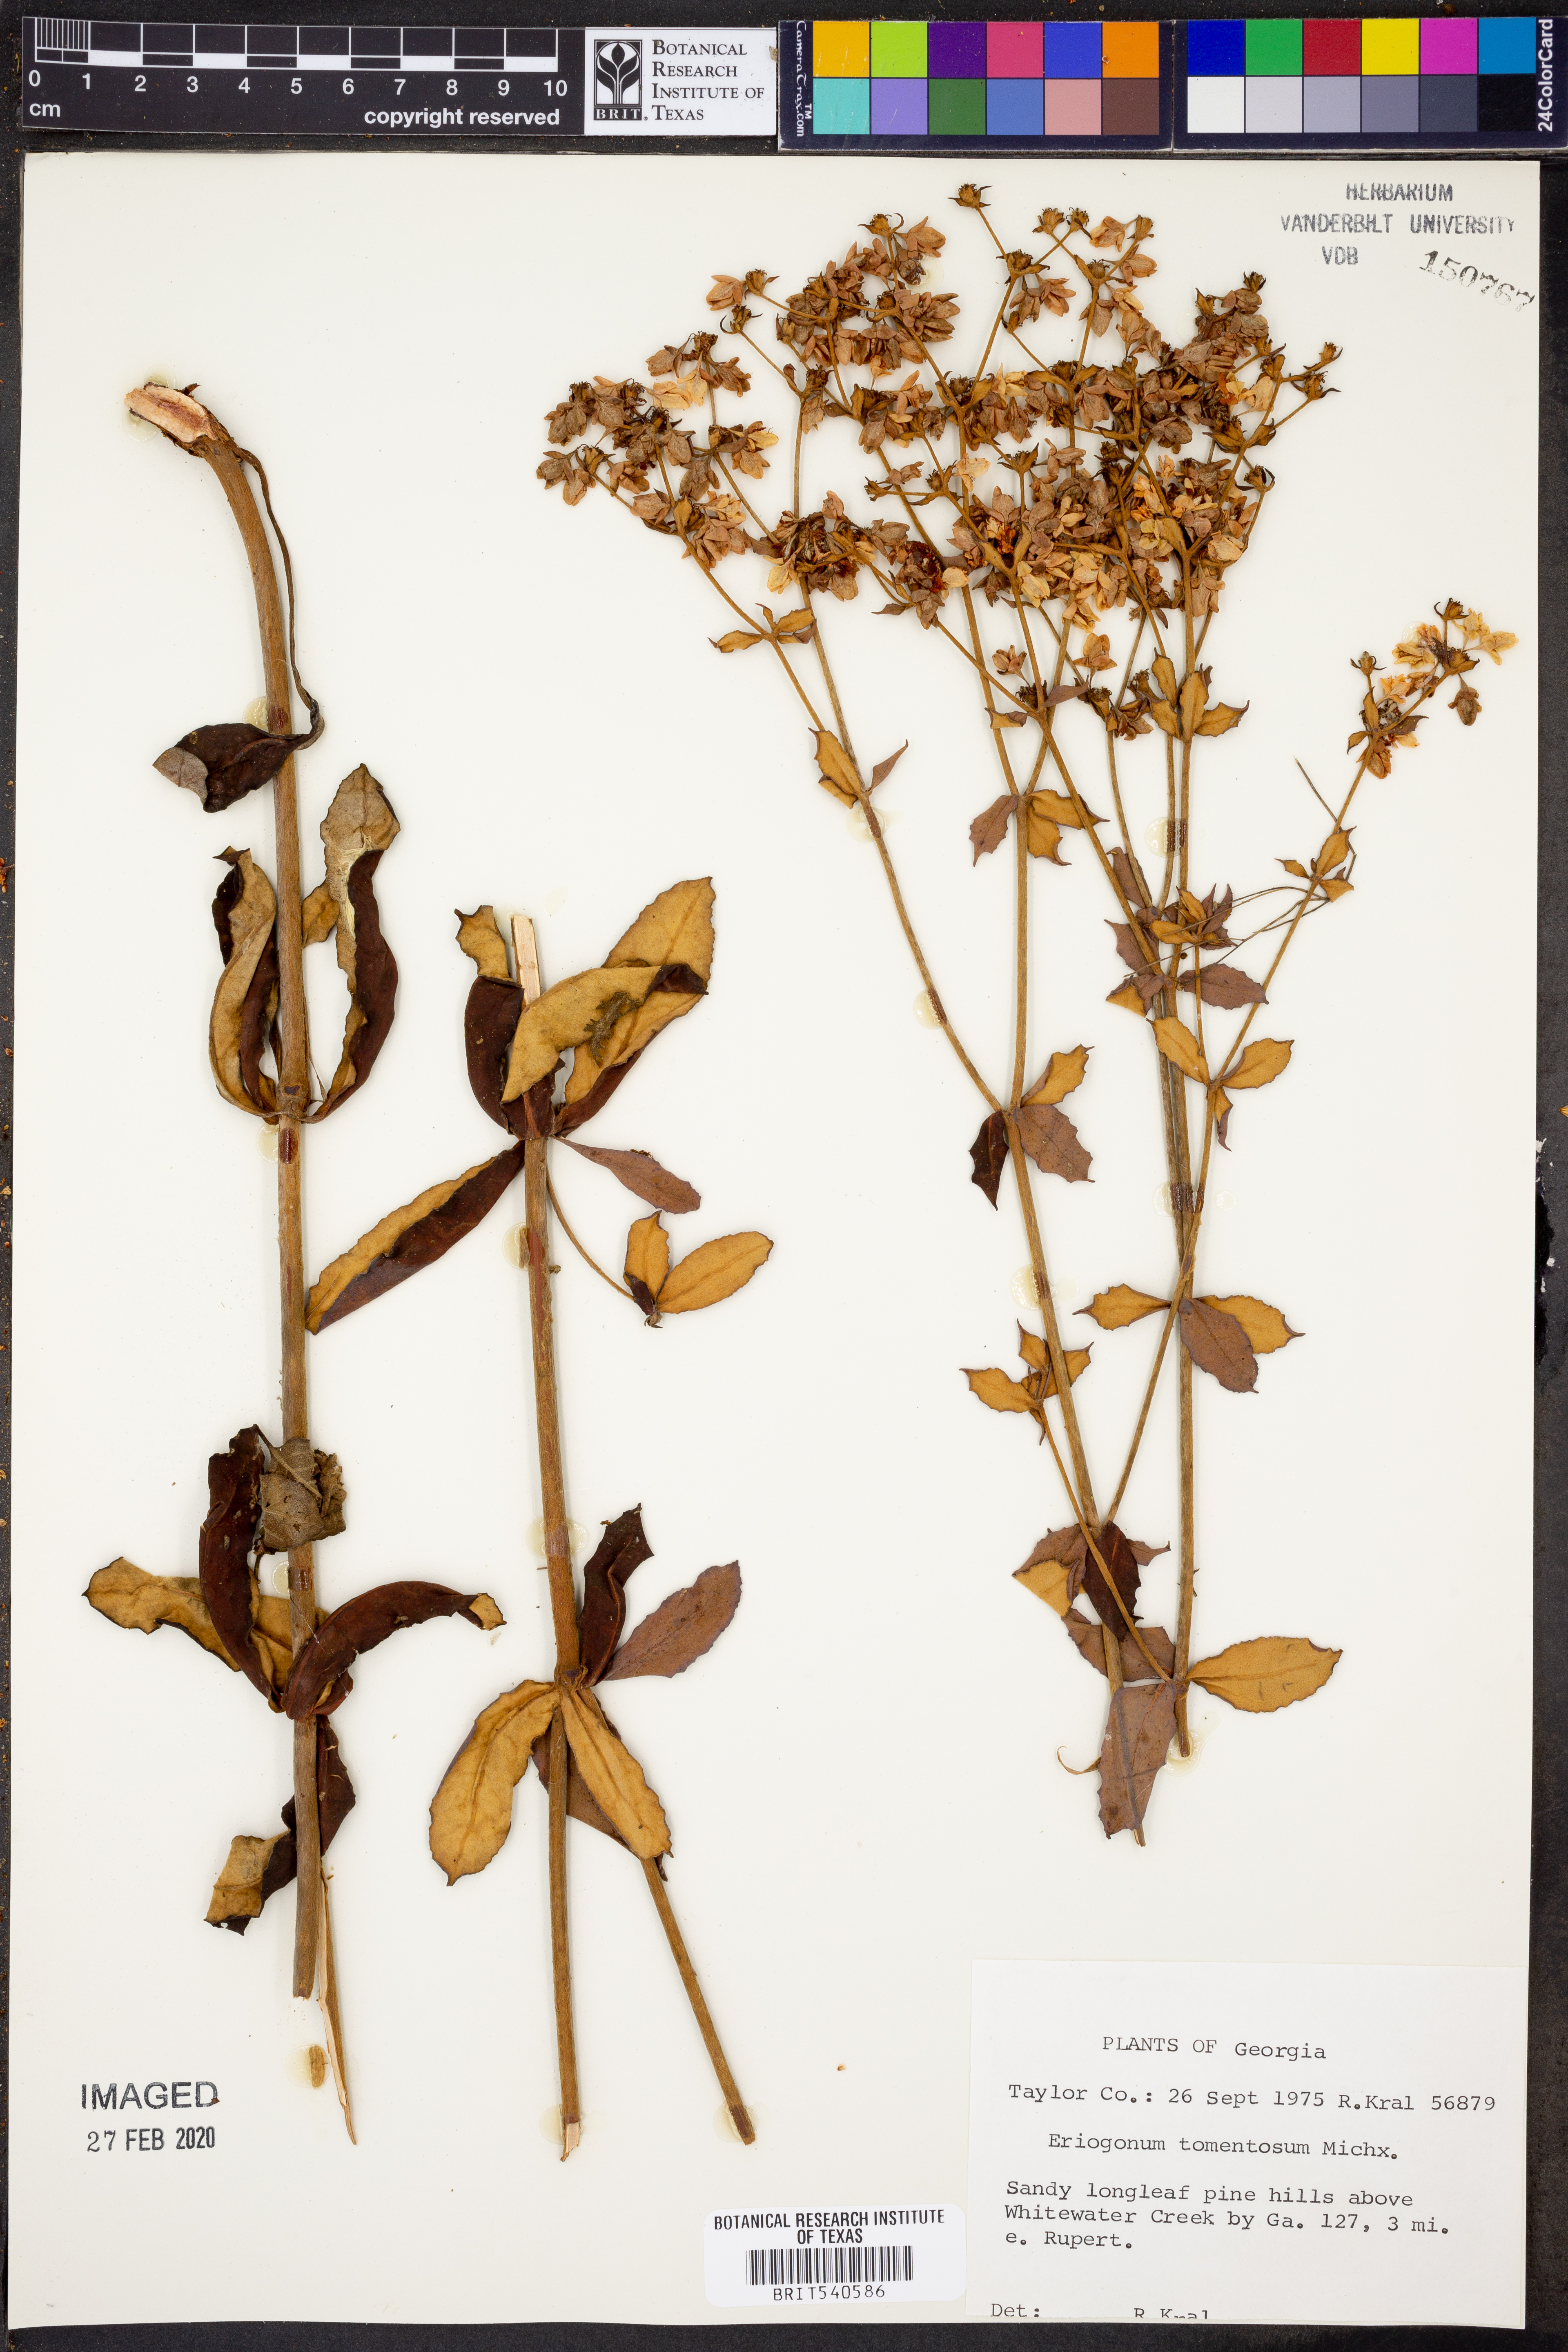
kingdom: Plantae
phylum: Tracheophyta
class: Magnoliopsida
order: Caryophyllales
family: Polygonaceae
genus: Eriogonum
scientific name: Eriogonum tomentosum
